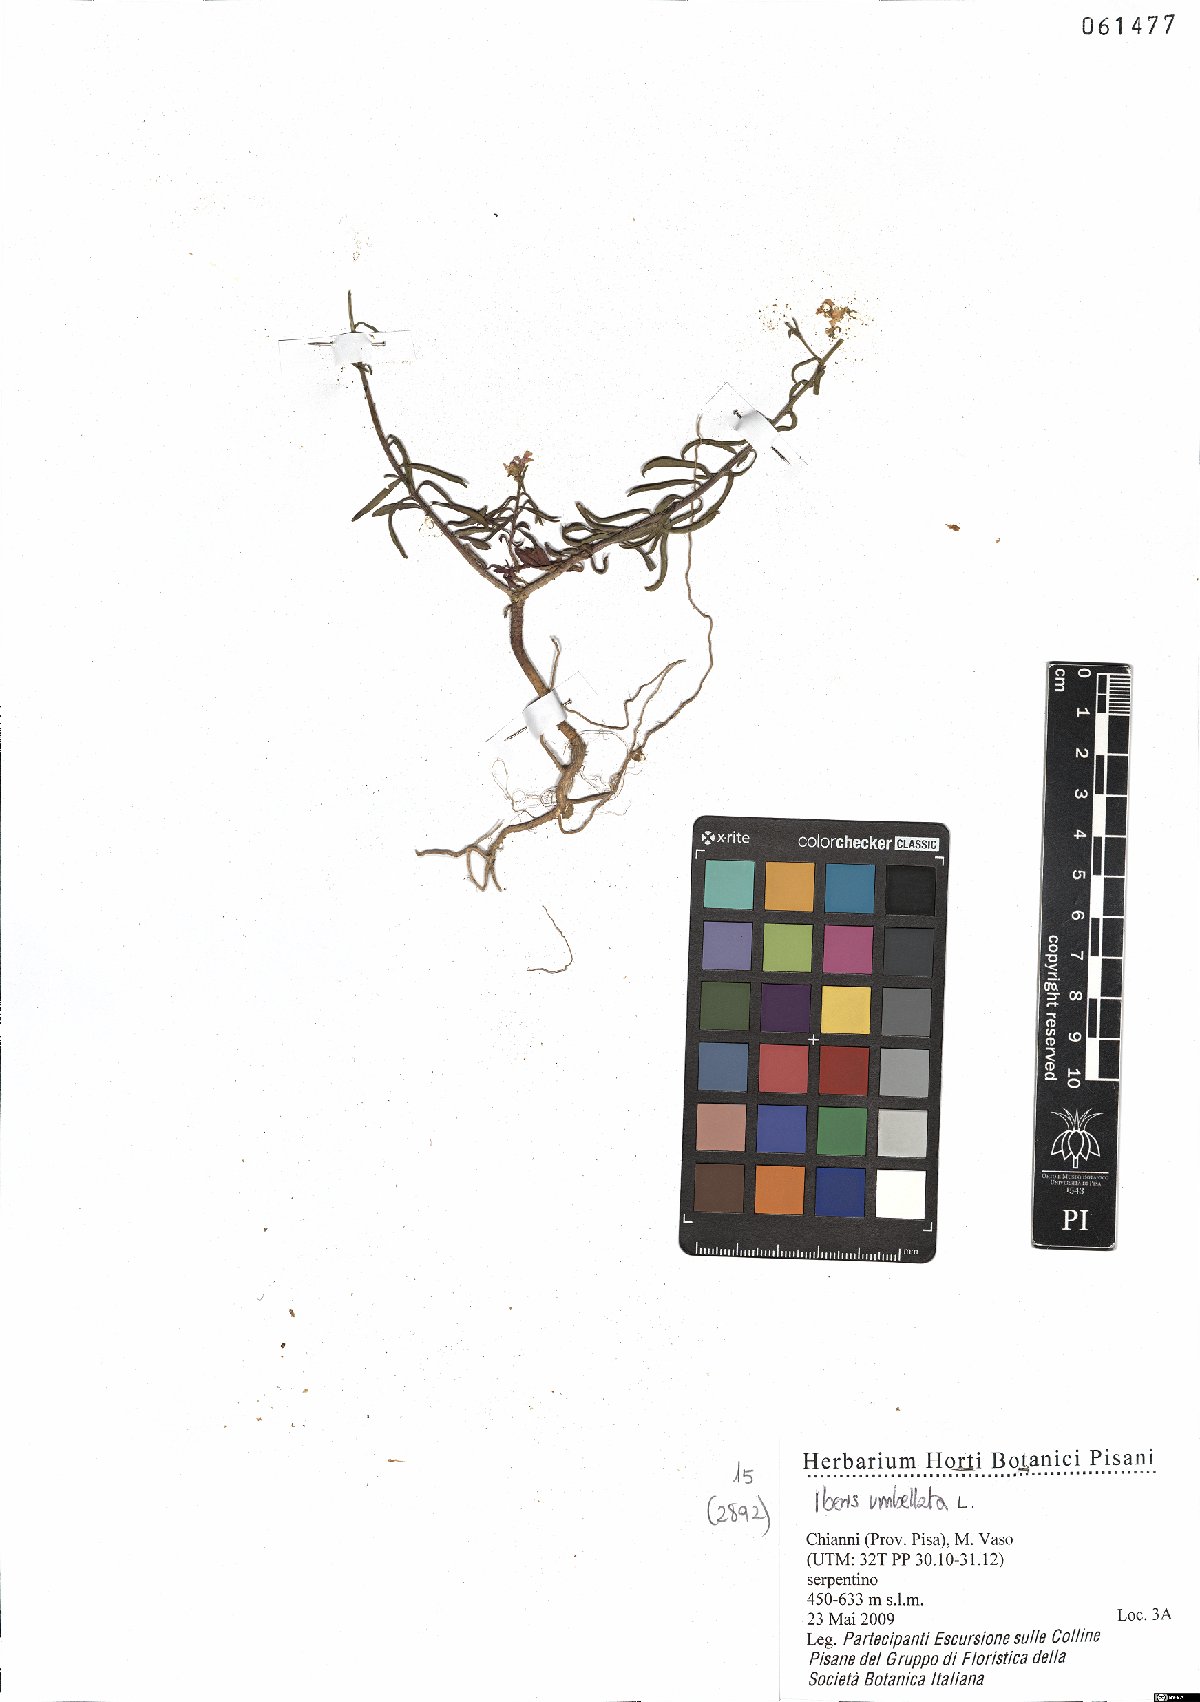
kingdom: Plantae
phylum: Tracheophyta
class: Magnoliopsida
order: Brassicales
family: Brassicaceae
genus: Iberis
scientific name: Iberis umbellata
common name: Globe candytuft
